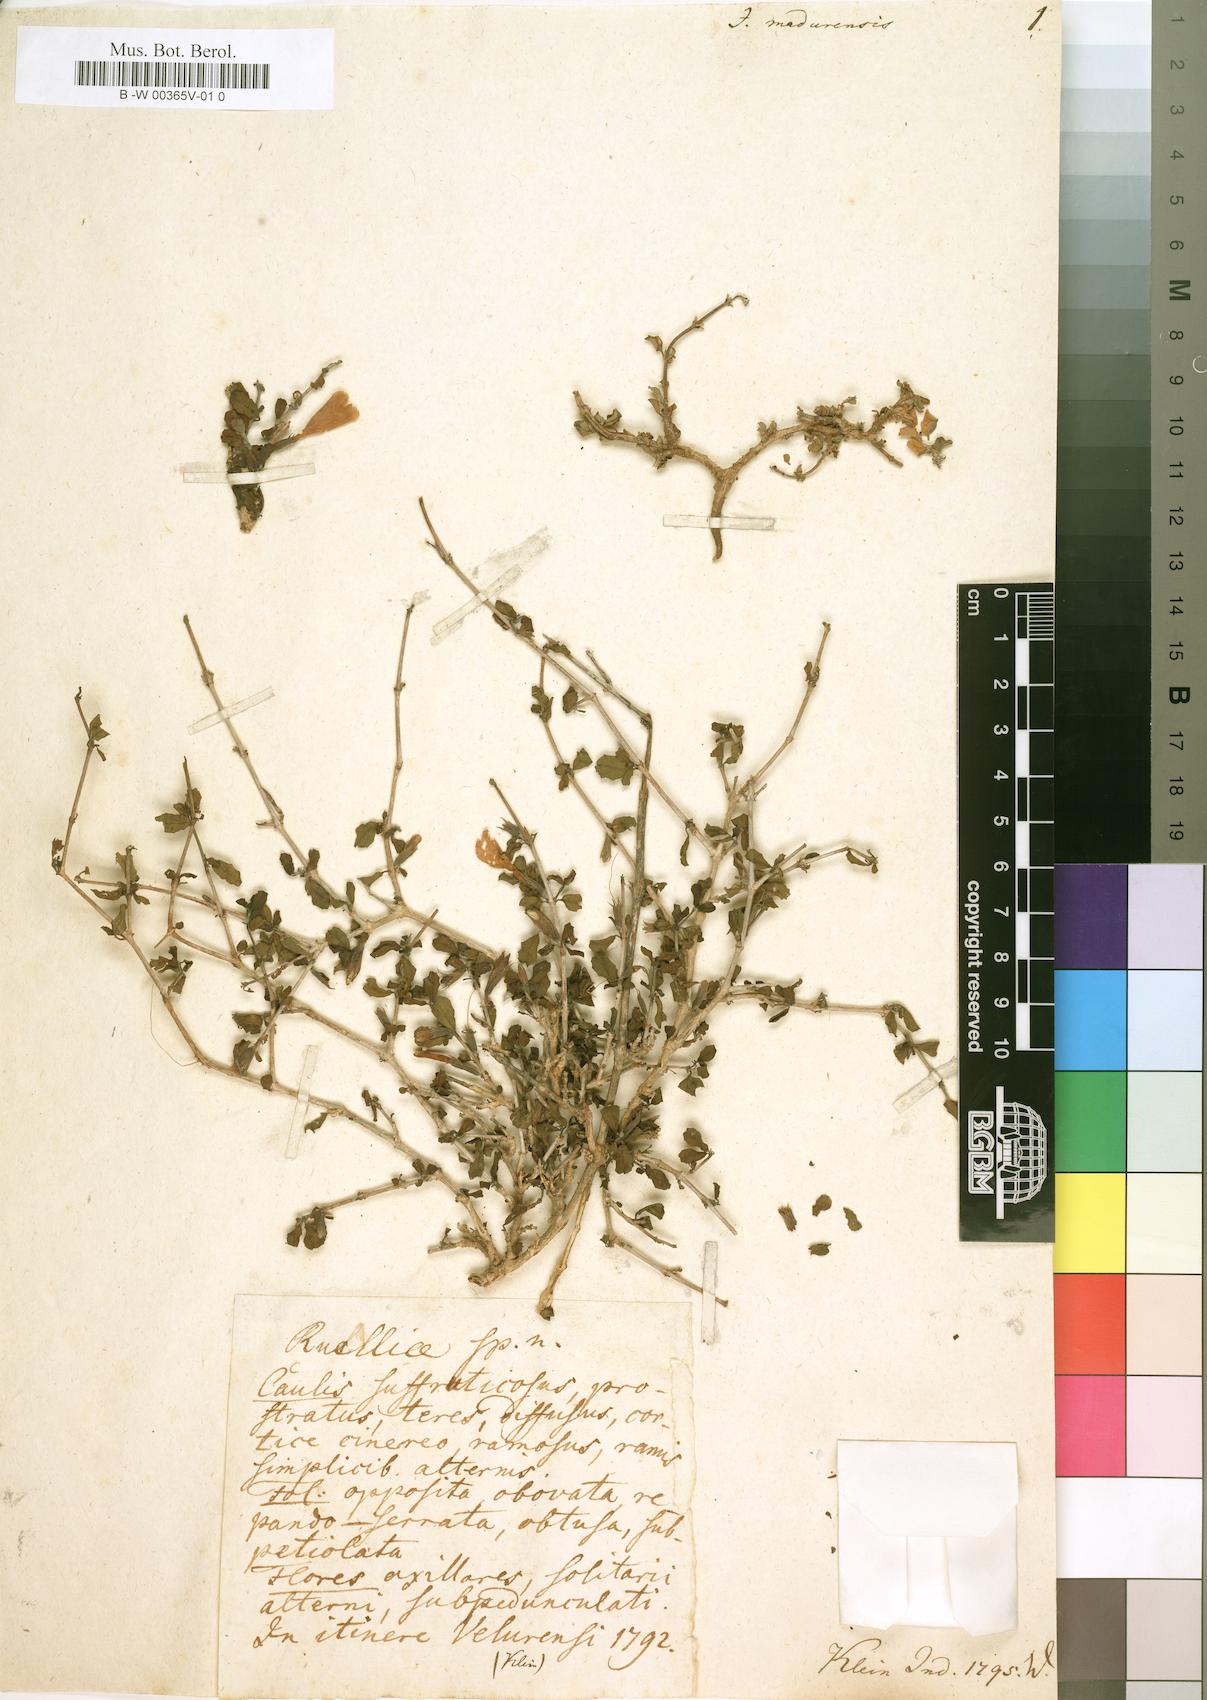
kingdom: Plantae
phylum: Tracheophyta
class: Magnoliopsida
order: Lamiales
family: Acanthaceae
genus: Dyschoriste
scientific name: Dyschoriste madurensis
